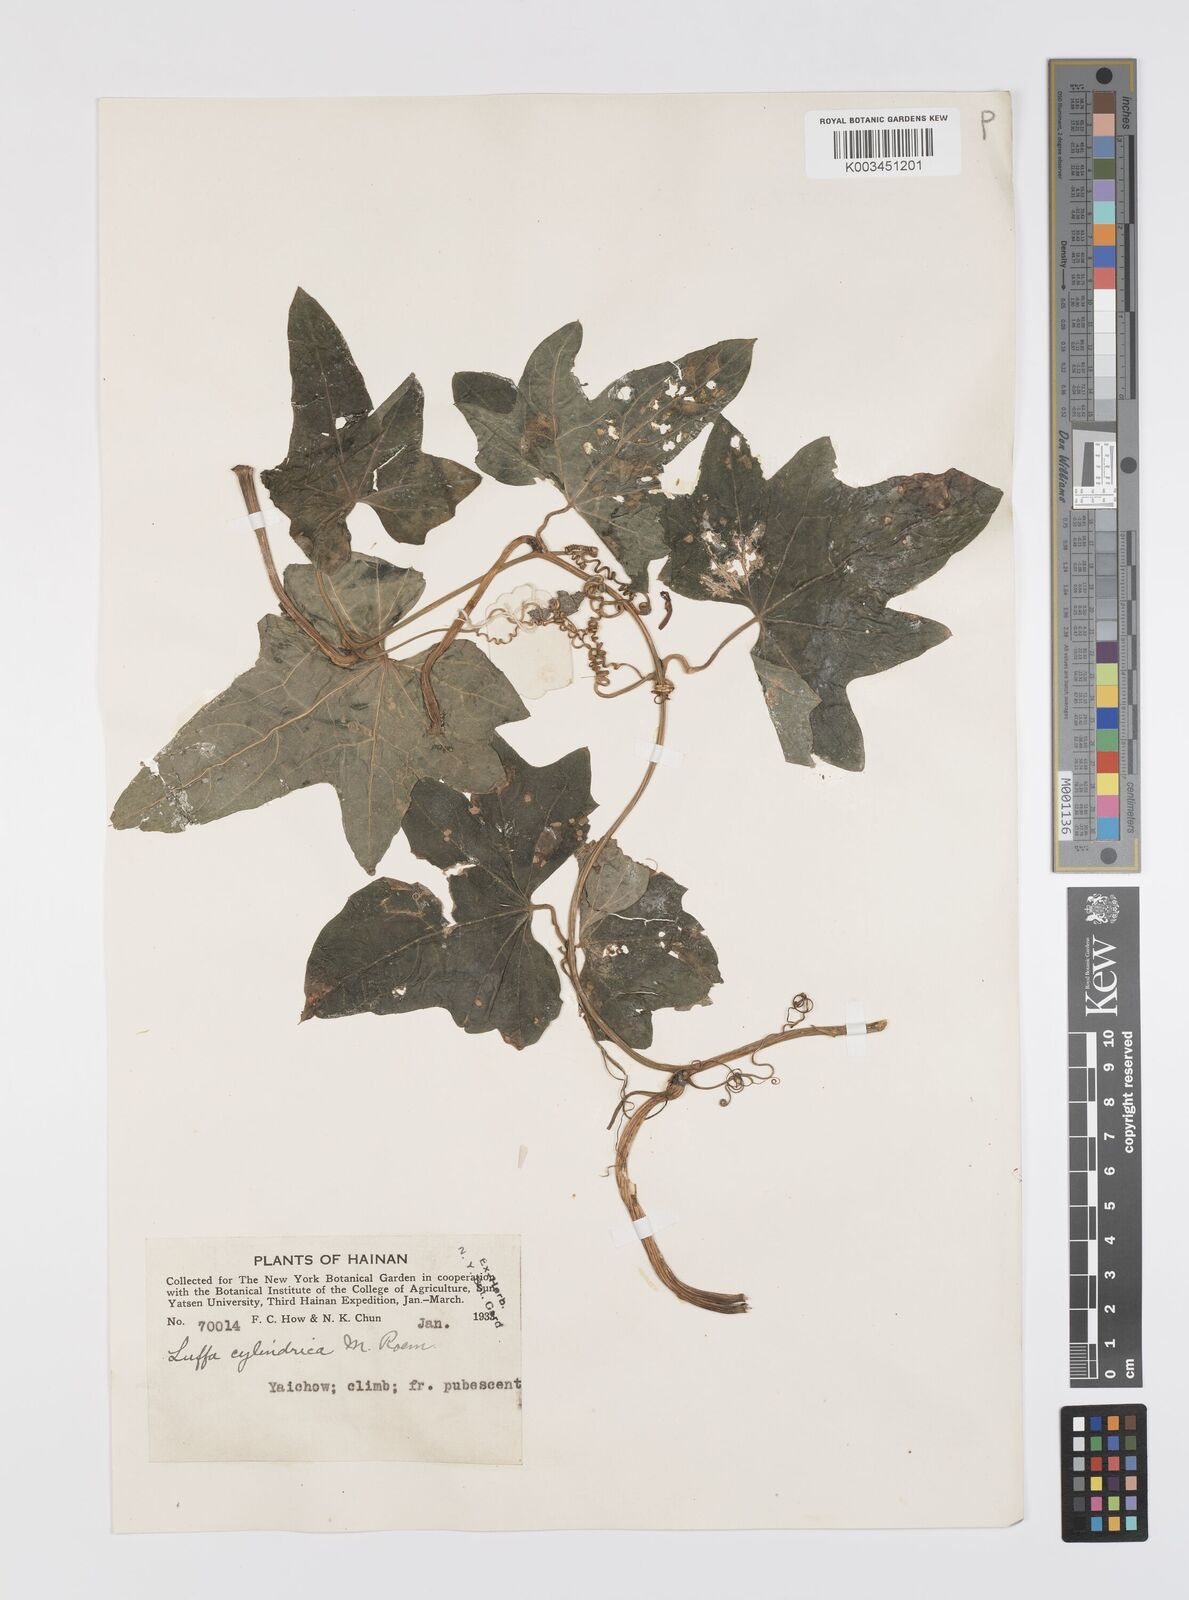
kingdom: Plantae
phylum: Tracheophyta
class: Magnoliopsida
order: Cucurbitales
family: Cucurbitaceae
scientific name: Cucurbitaceae
